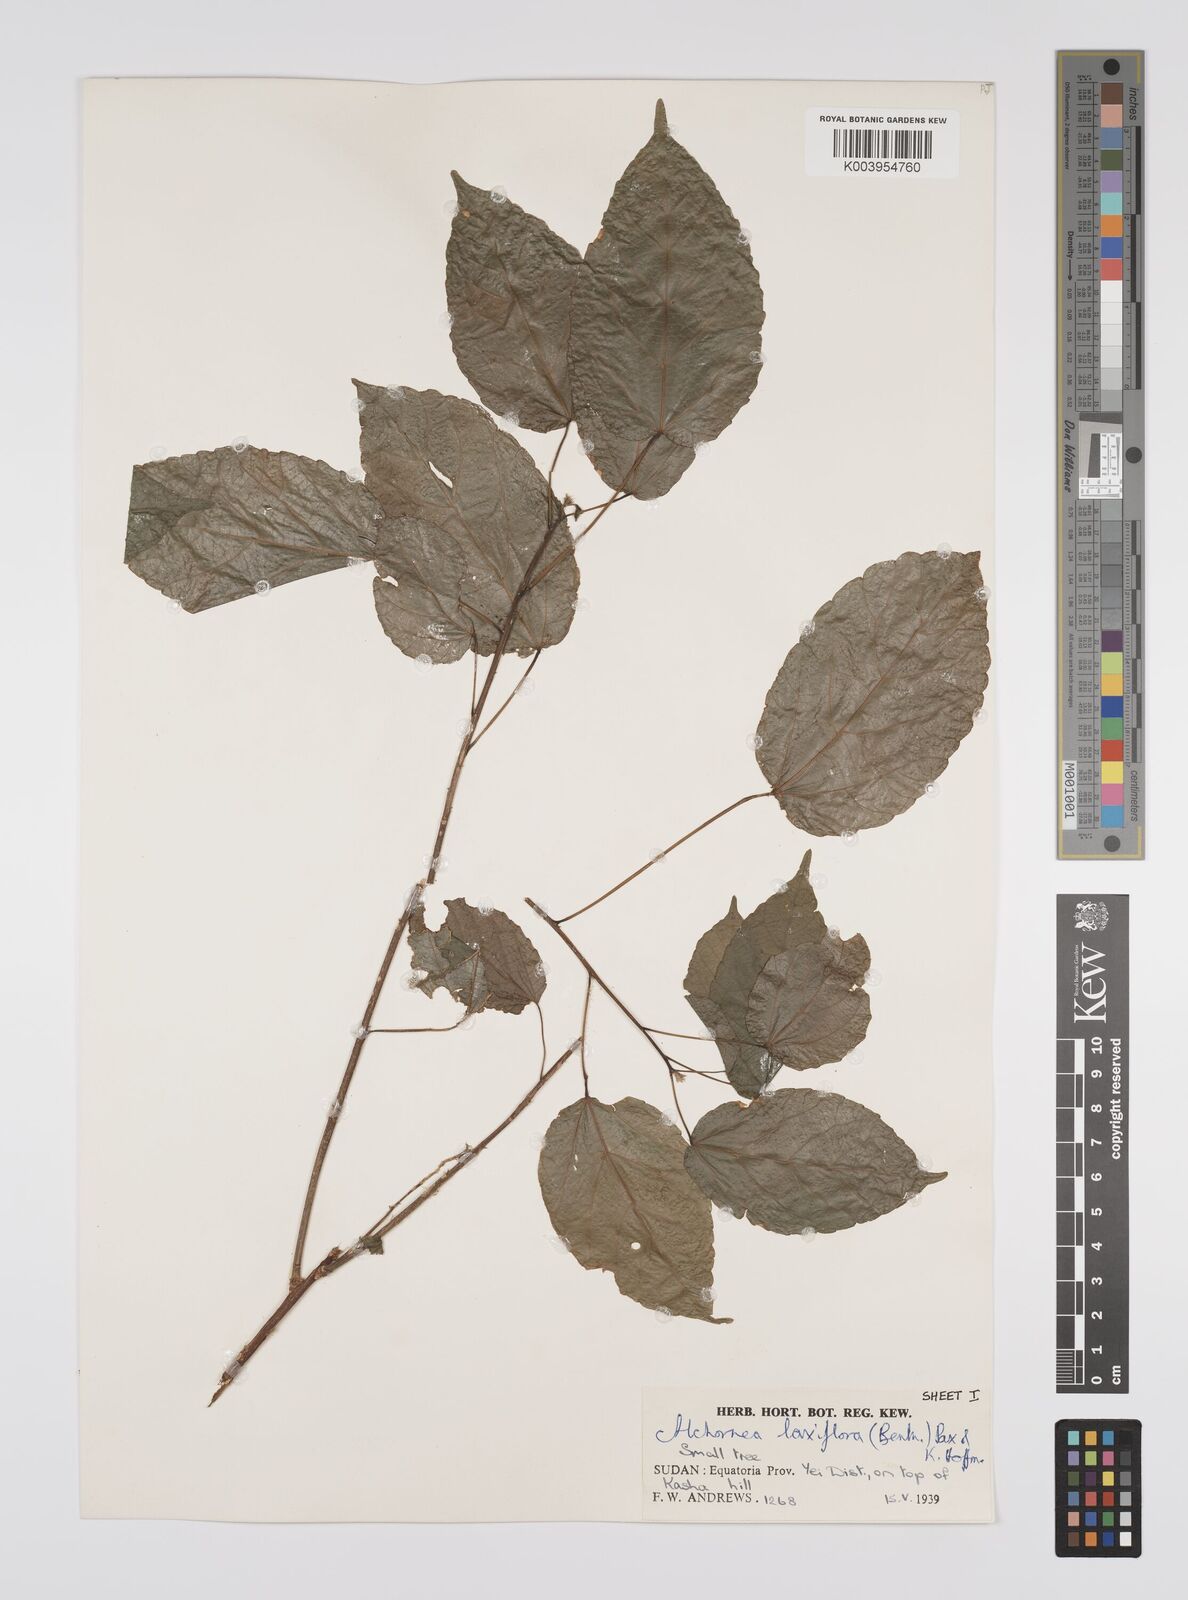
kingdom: Plantae
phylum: Tracheophyta
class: Magnoliopsida
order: Malpighiales
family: Euphorbiaceae
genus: Alchornea
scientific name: Alchornea laxiflora
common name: Lowveld bead-string
